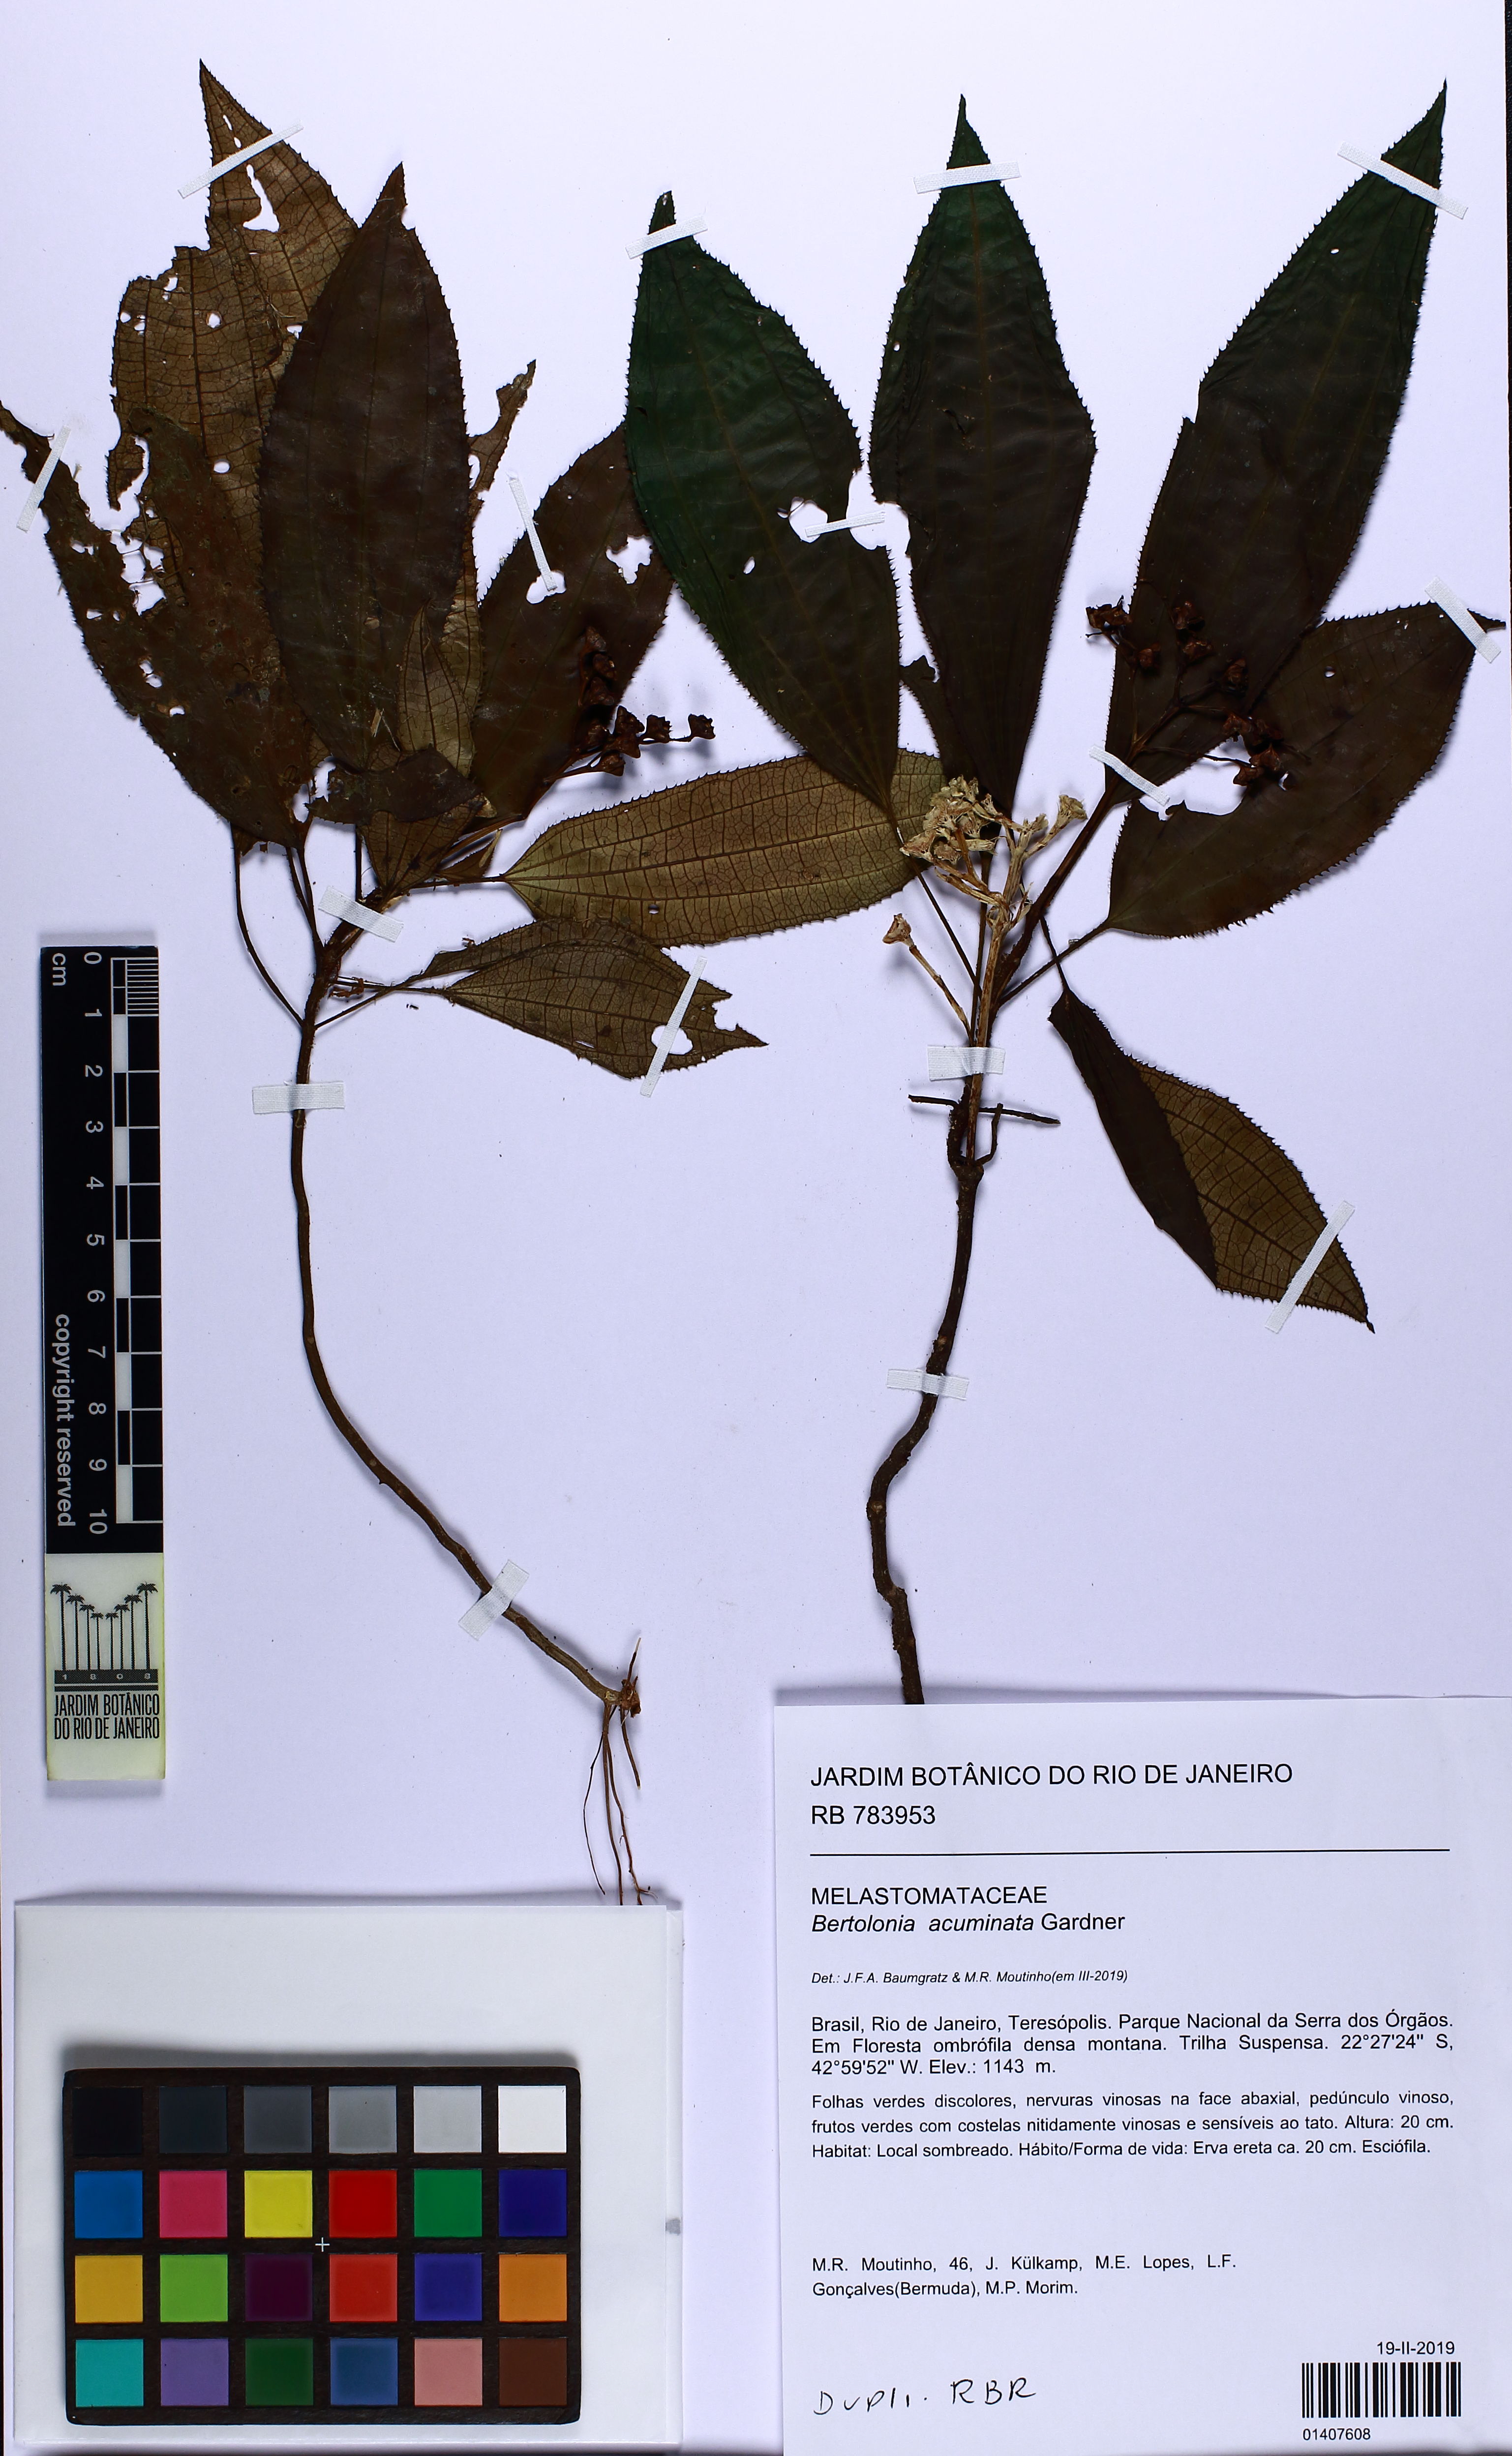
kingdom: Plantae
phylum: Tracheophyta
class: Magnoliopsida
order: Myrtales
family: Melastomataceae
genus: Bertolonia
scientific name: Bertolonia acuminata
